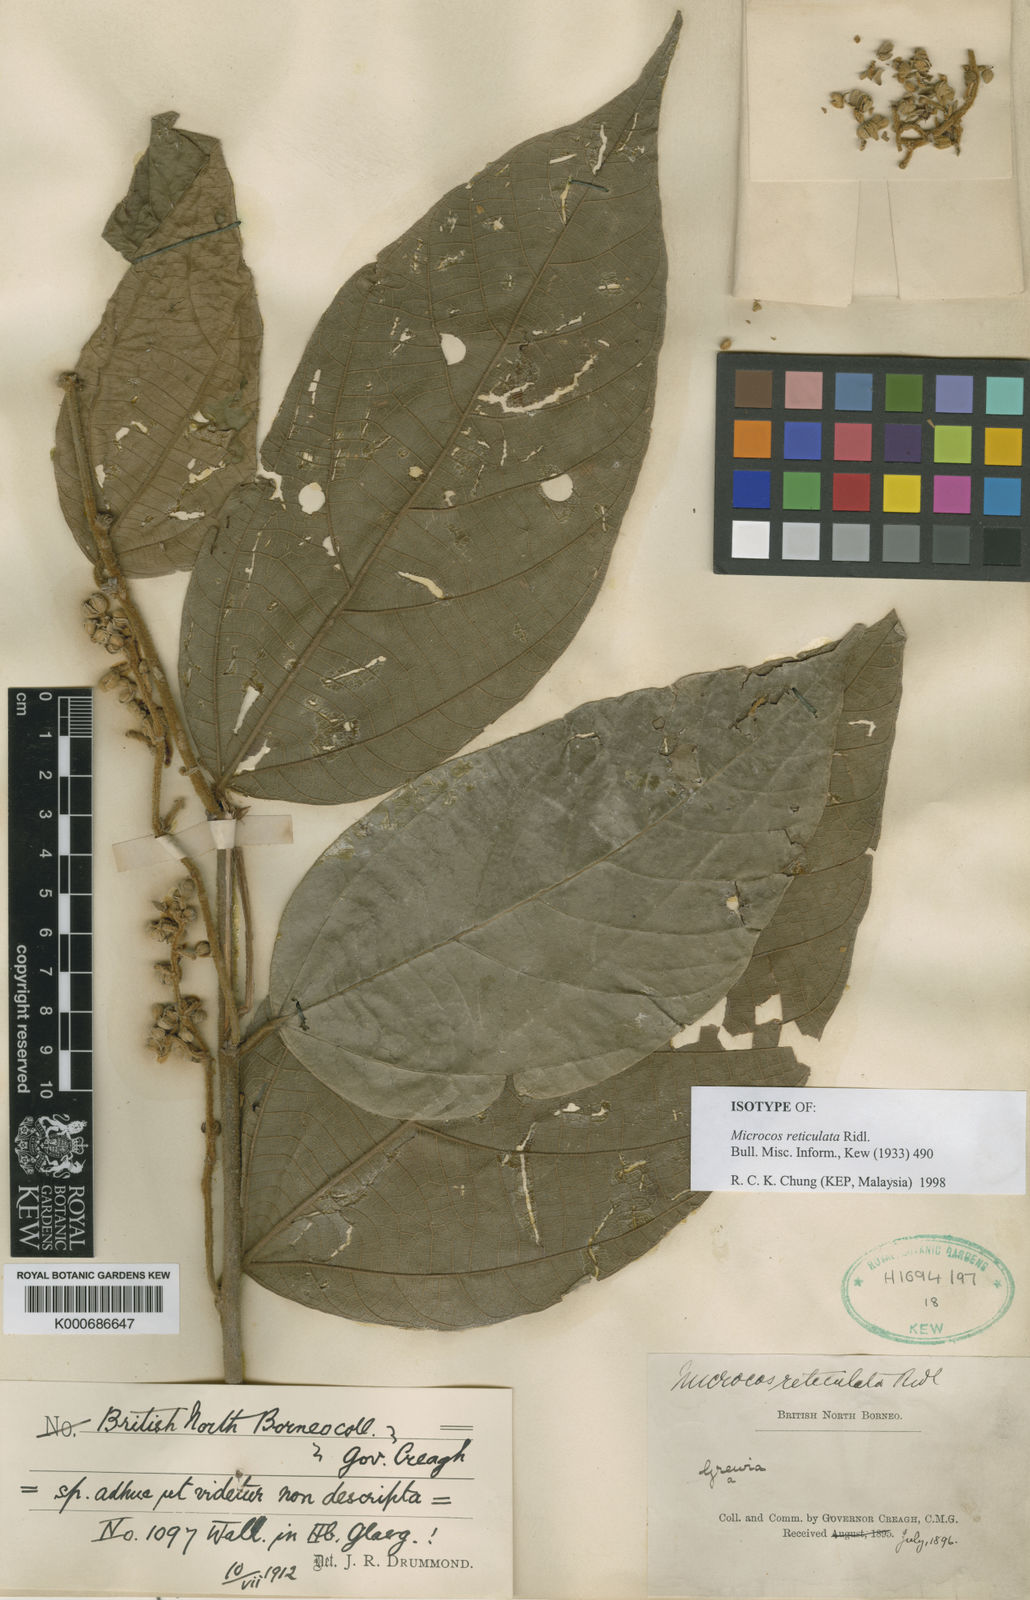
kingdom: Plantae
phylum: Tracheophyta
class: Magnoliopsida
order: Malvales
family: Malvaceae
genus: Microcos
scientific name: Microcos reticulata
